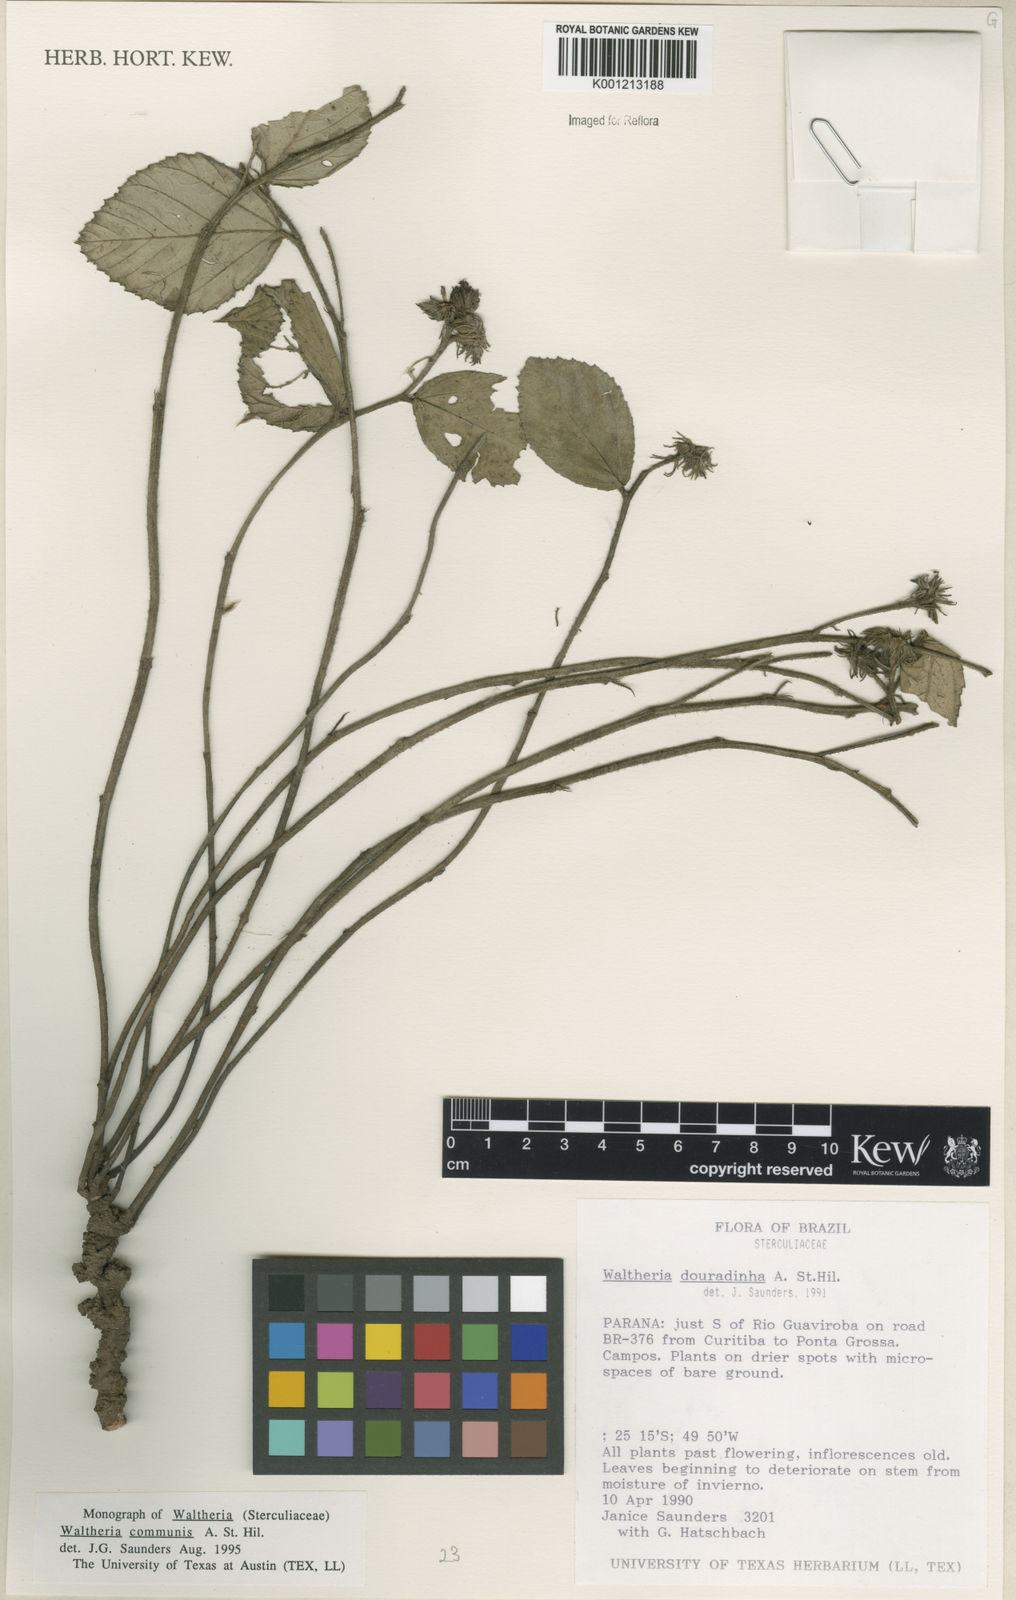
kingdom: Plantae
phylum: Tracheophyta
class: Magnoliopsida
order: Malvales
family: Malvaceae
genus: Waltheria
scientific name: Waltheria communis
